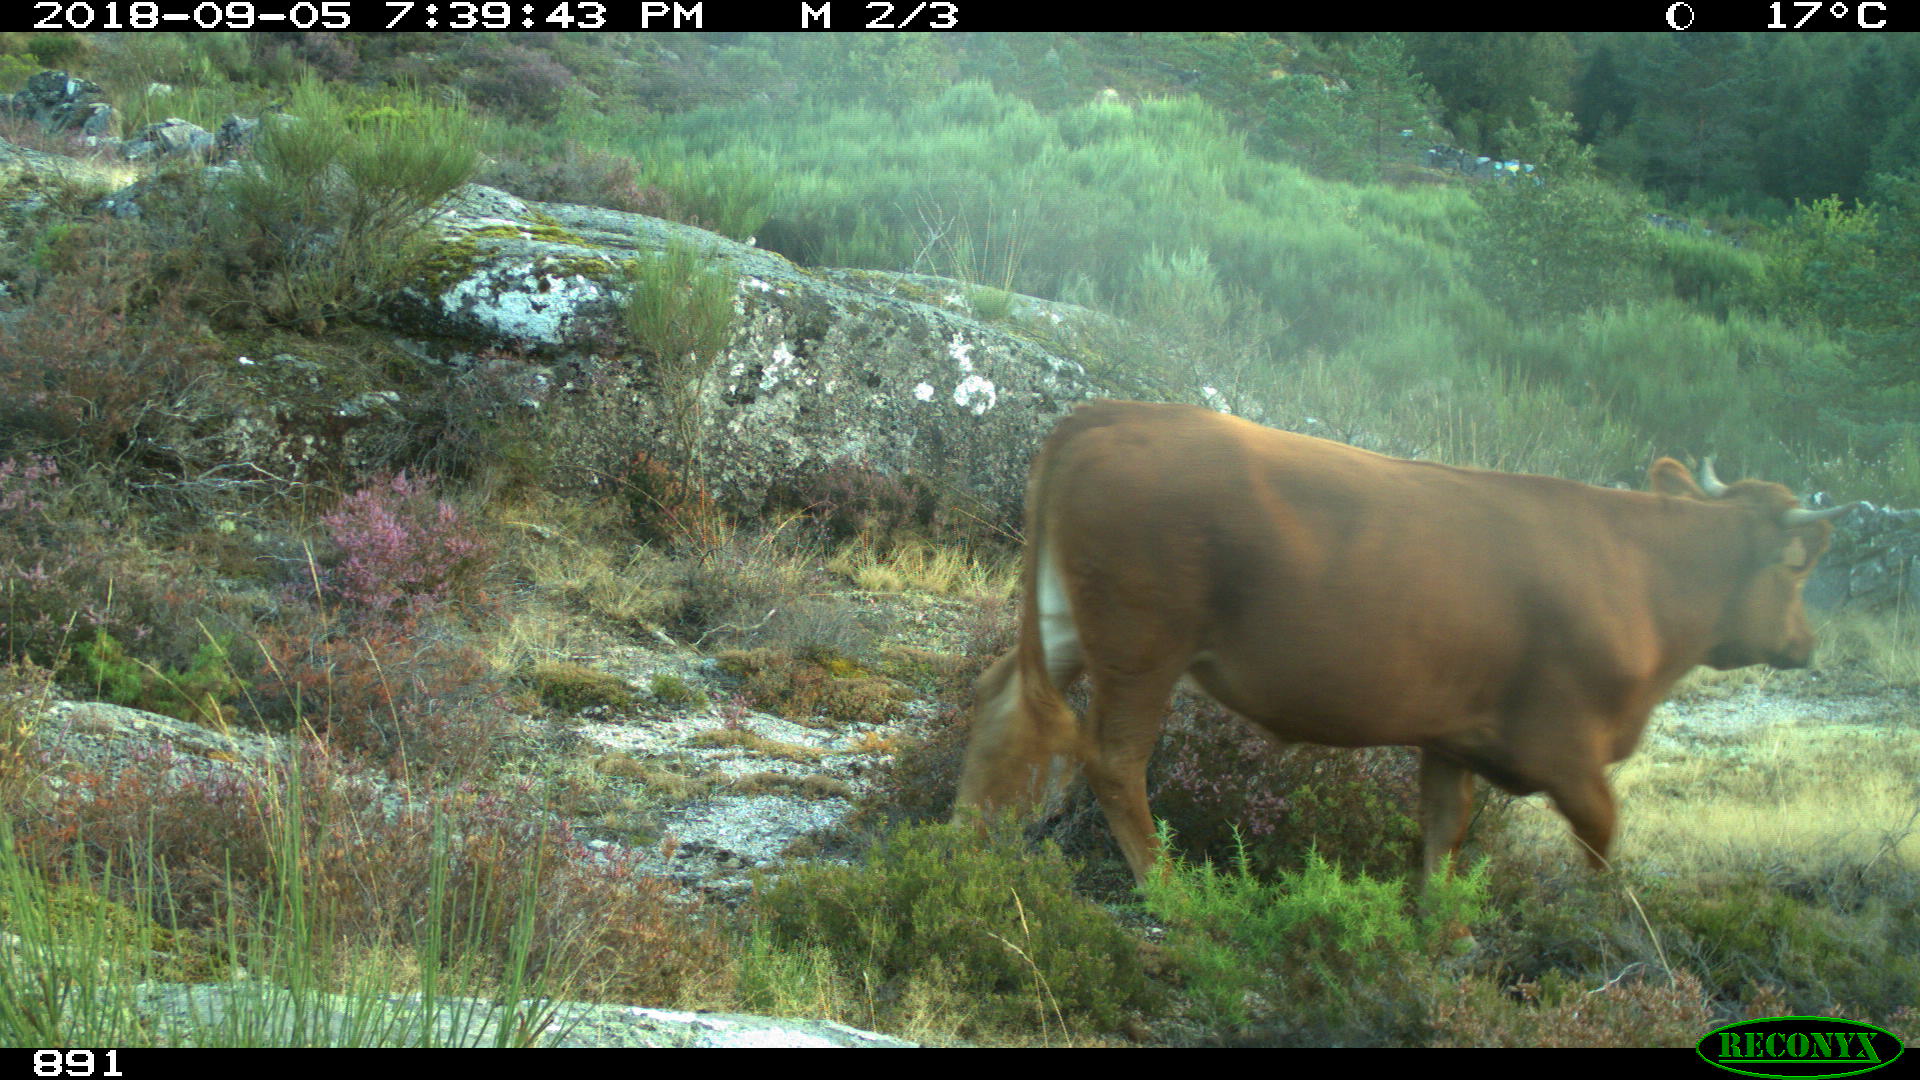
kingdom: Animalia
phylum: Chordata
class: Mammalia
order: Artiodactyla
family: Bovidae
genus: Bos
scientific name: Bos taurus
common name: Domesticated cattle
